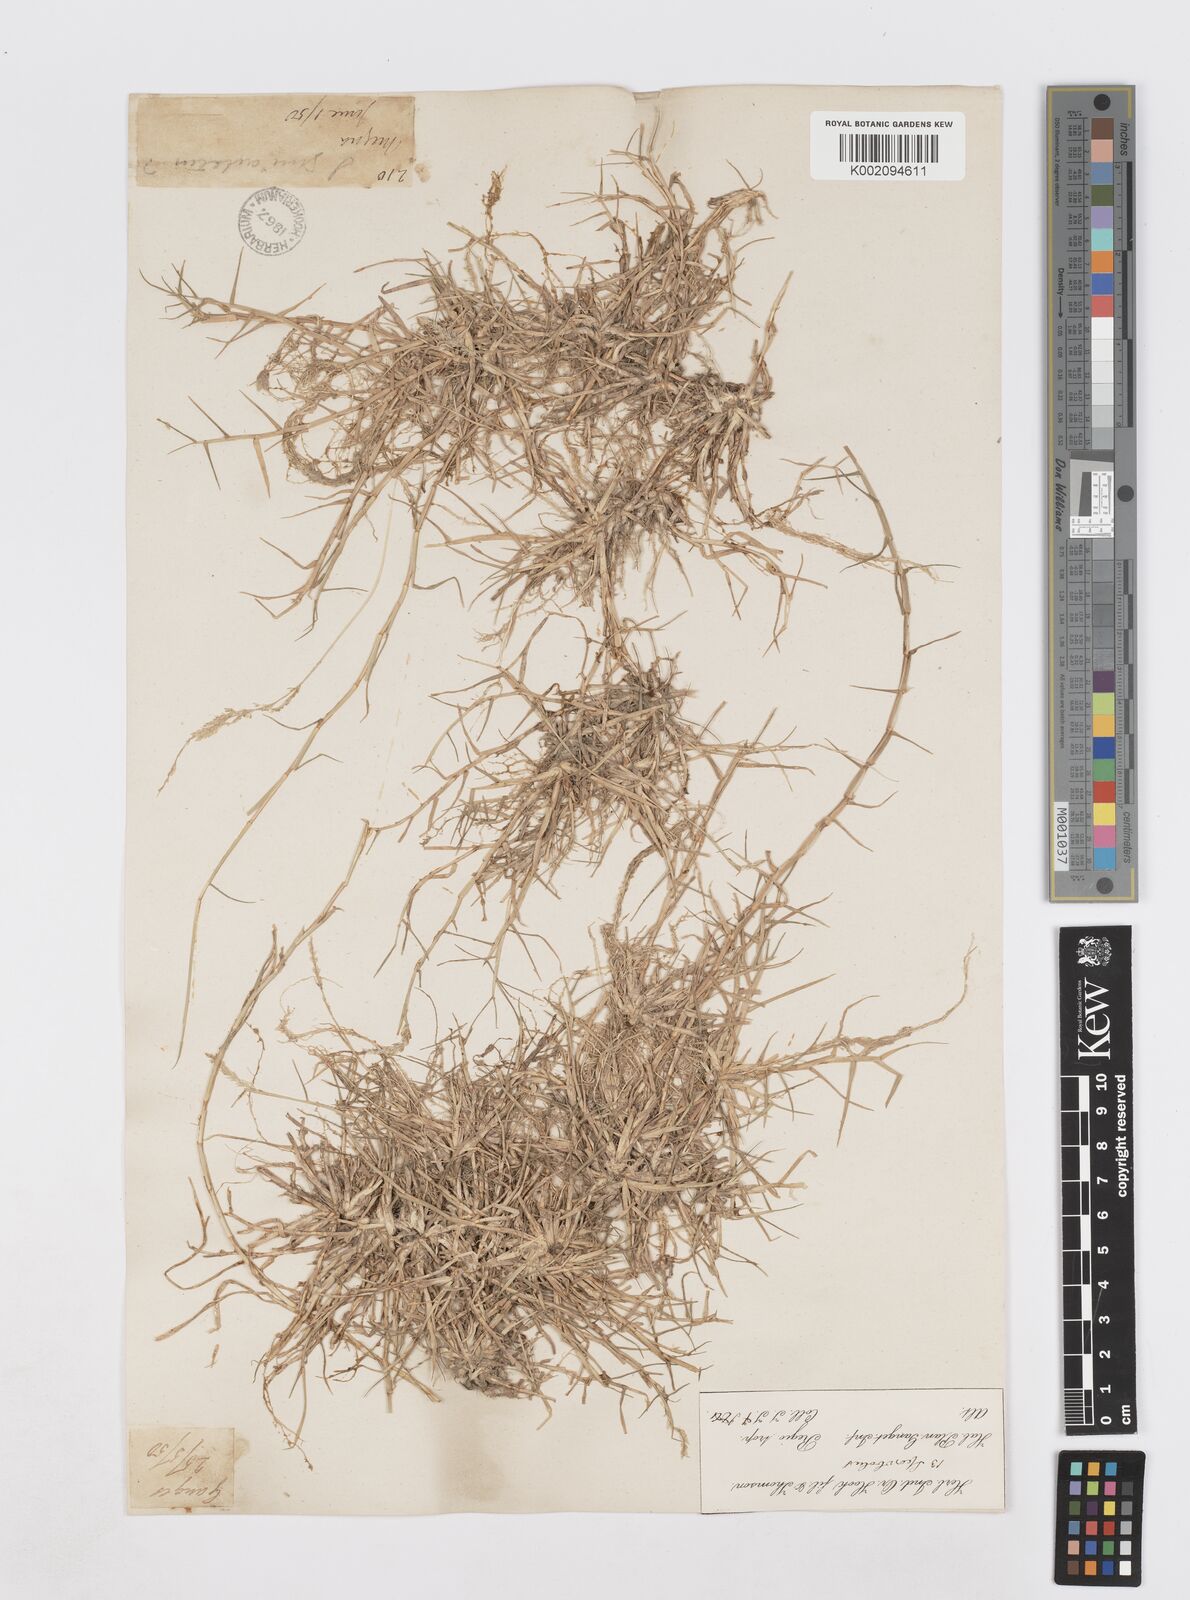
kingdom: Plantae
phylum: Tracheophyta
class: Liliopsida
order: Poales
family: Poaceae
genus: Sporobolus
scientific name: Sporobolus virginicus
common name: Beach dropseed
